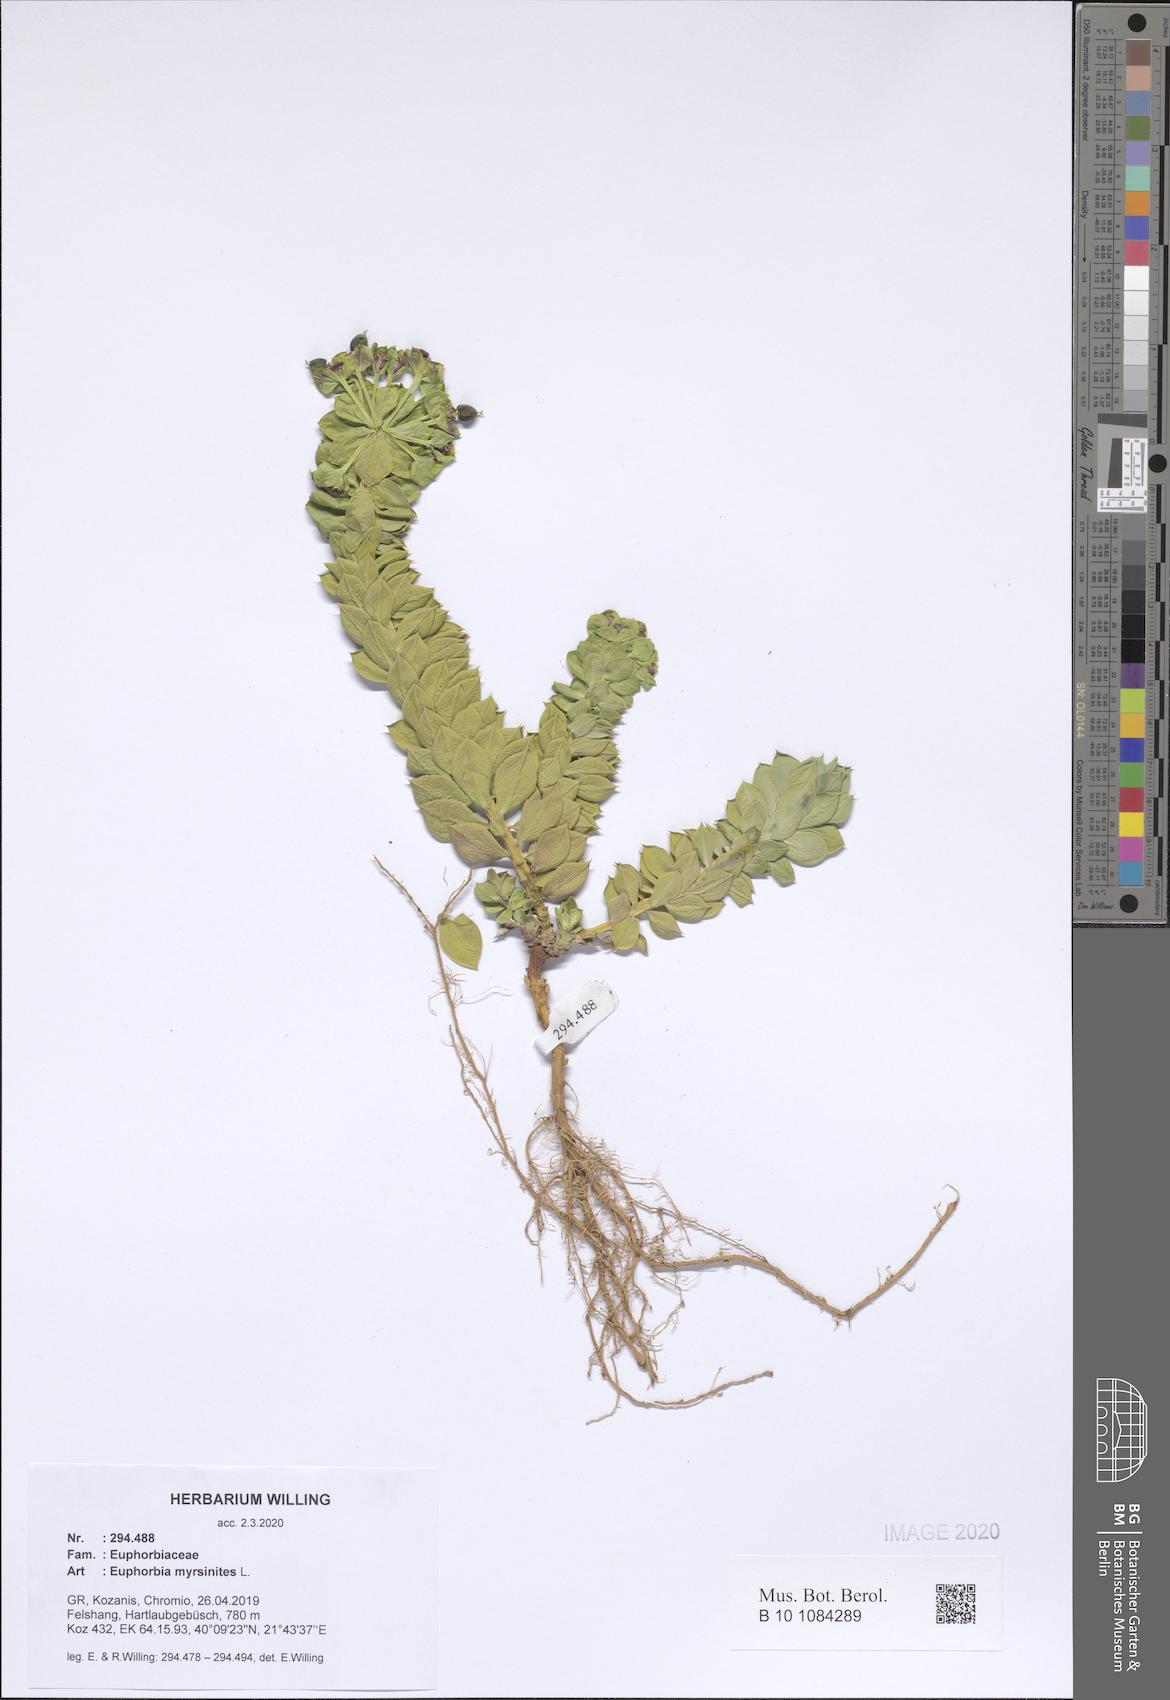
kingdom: Plantae
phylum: Tracheophyta
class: Magnoliopsida
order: Malpighiales
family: Euphorbiaceae
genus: Euphorbia
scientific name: Euphorbia myrsinites
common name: Myrtle spurge
